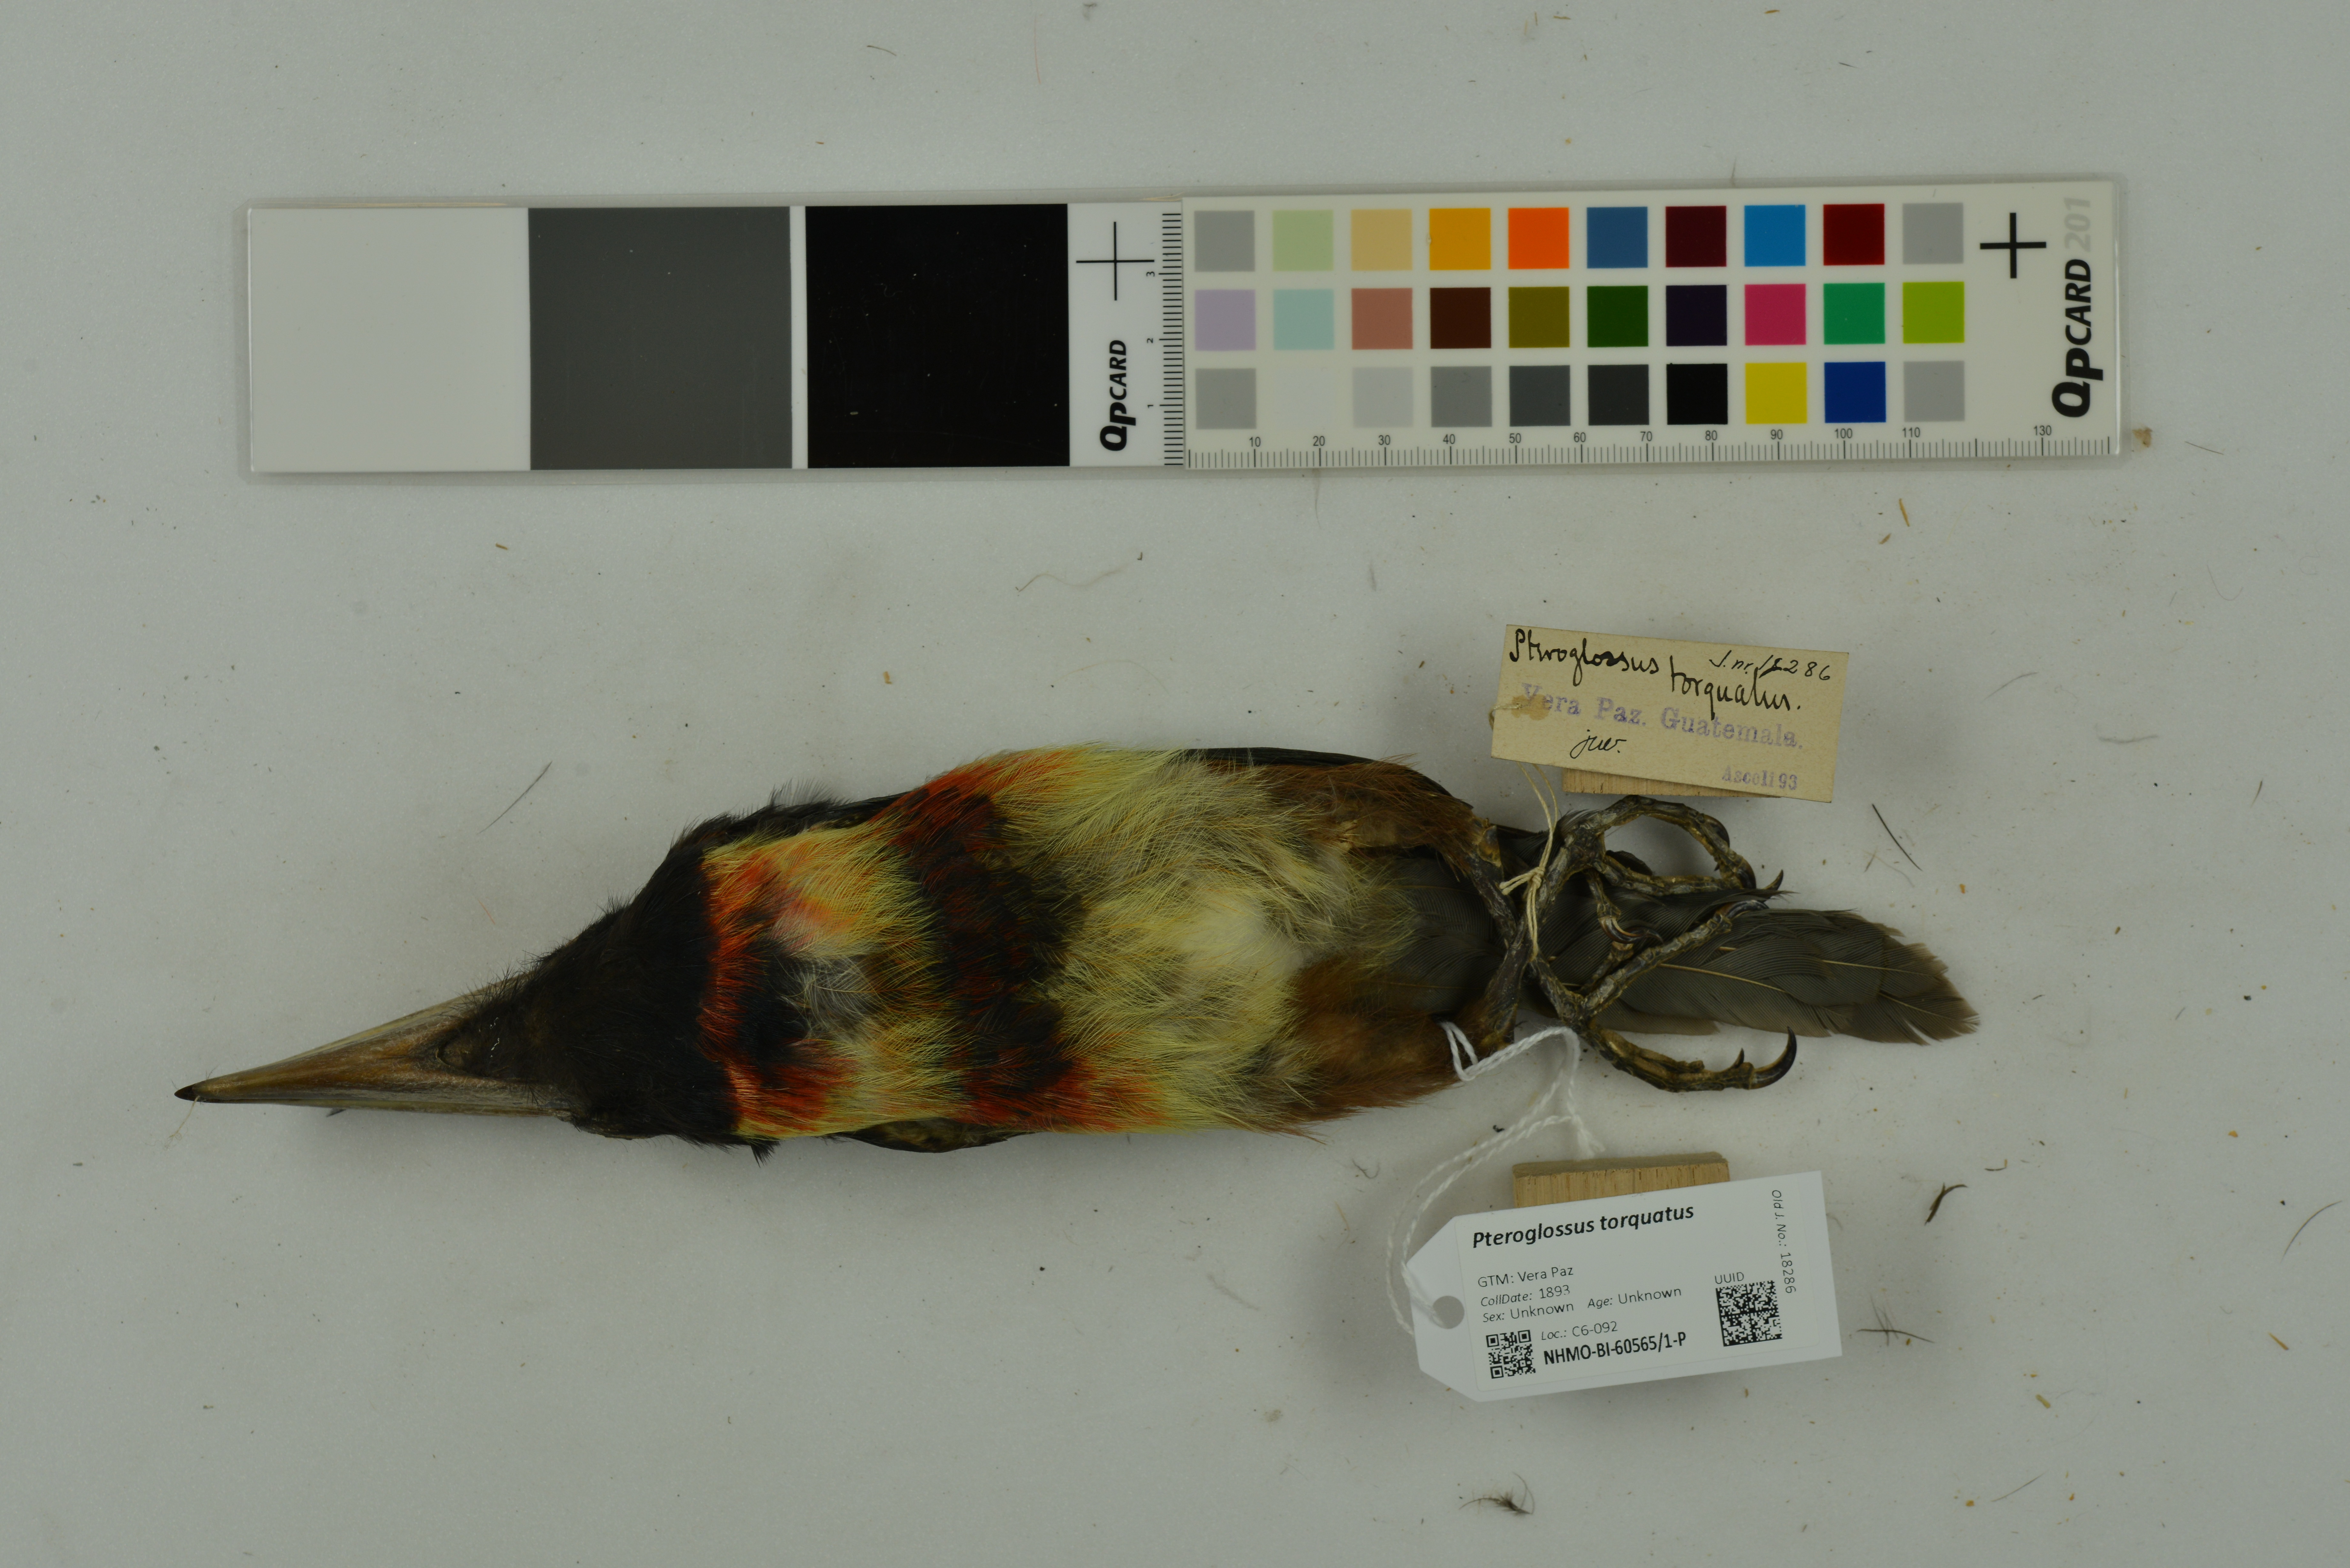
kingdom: Animalia
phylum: Chordata
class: Aves
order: Piciformes
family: Ramphastidae
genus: Pteroglossus
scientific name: Pteroglossus torquatus
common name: Collared aracari
